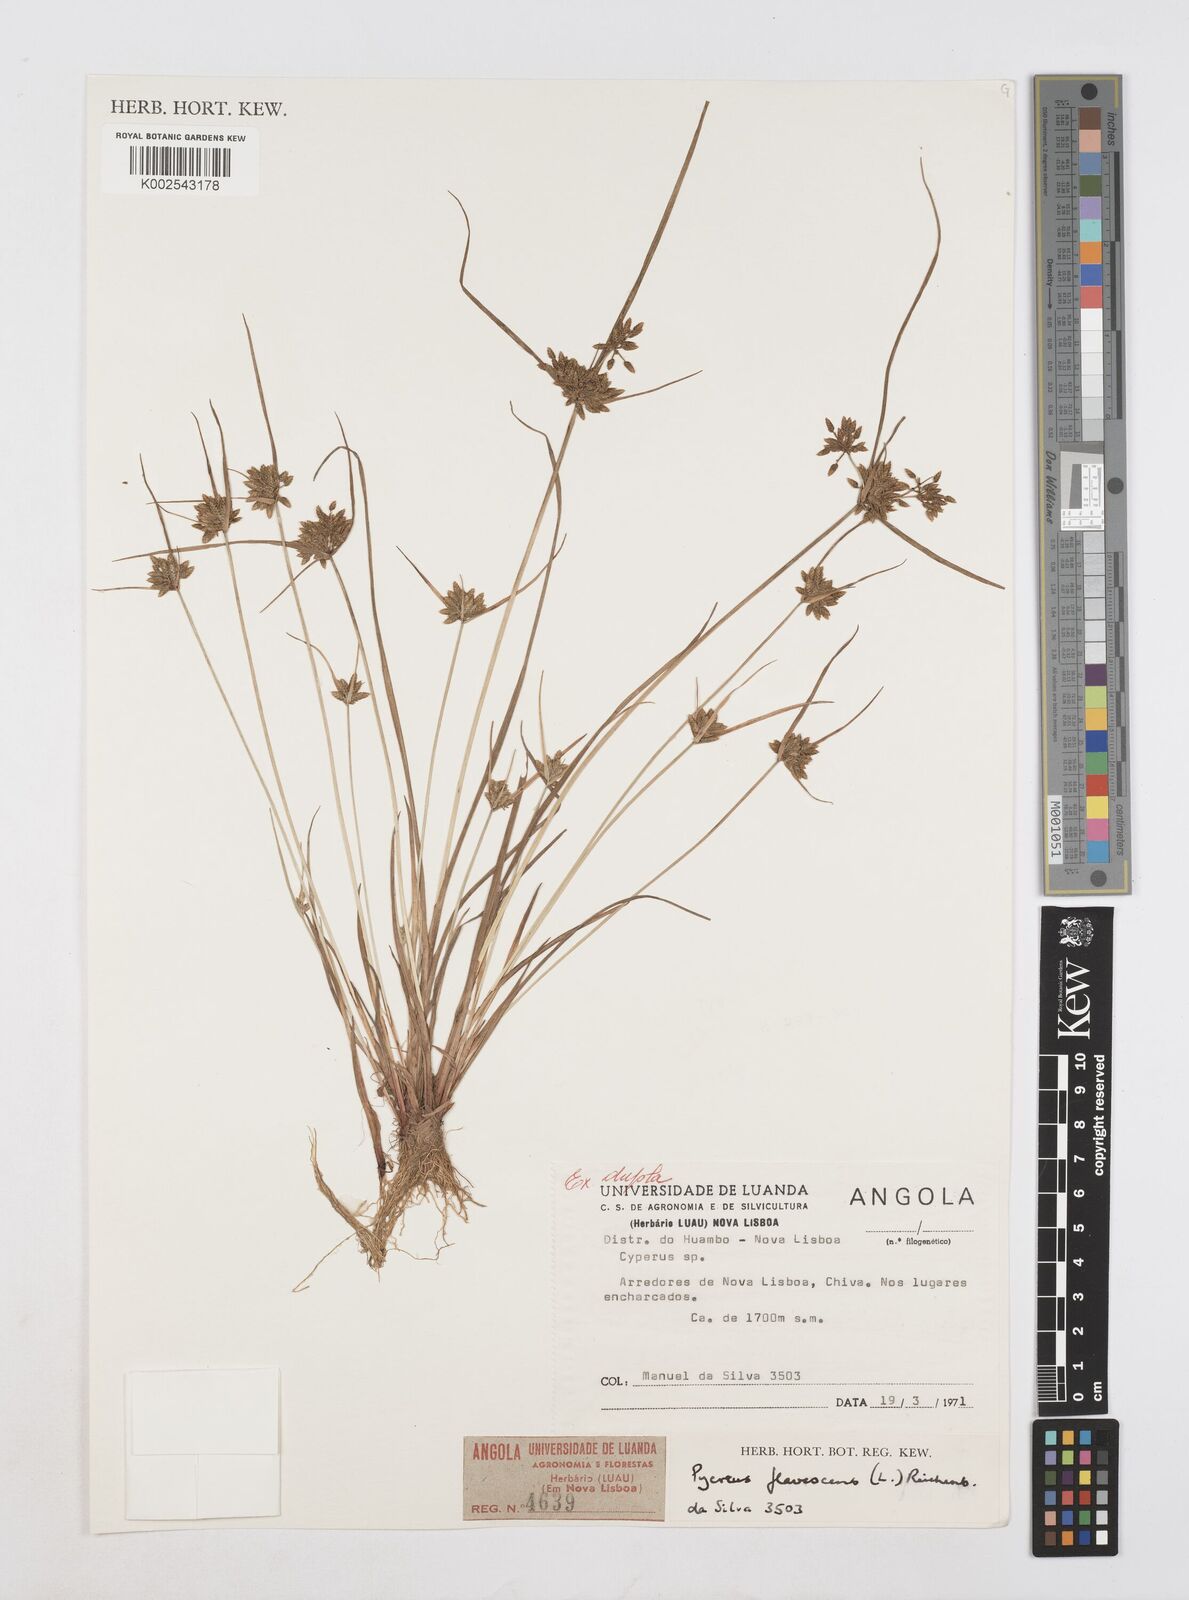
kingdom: Plantae
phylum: Tracheophyta
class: Liliopsida
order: Poales
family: Cyperaceae
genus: Cyperus
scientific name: Cyperus flavescens
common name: Yellow galingale
